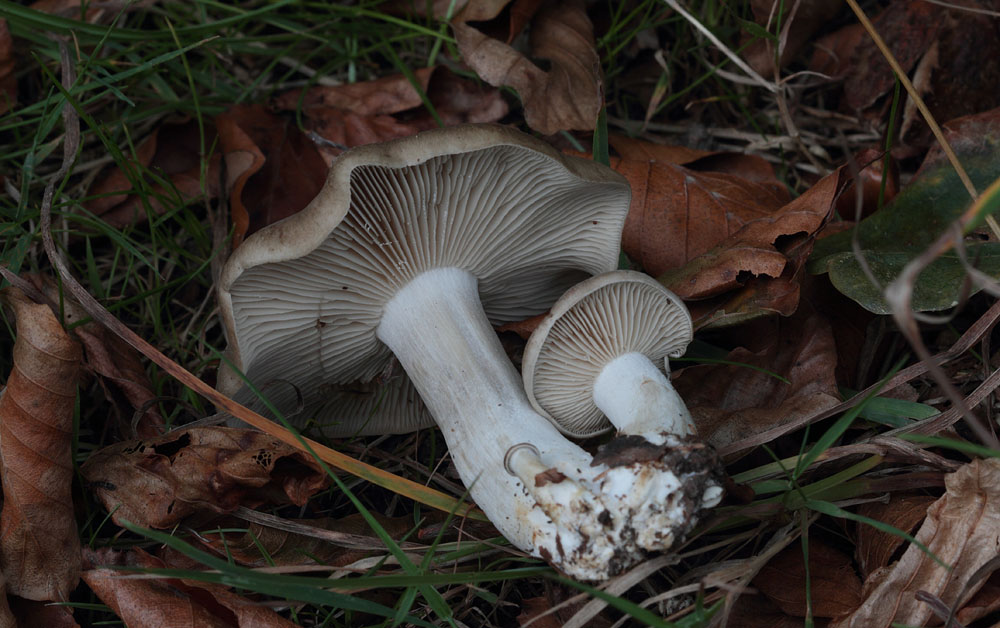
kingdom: Fungi
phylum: Basidiomycota
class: Agaricomycetes
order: Agaricales
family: Lyophyllaceae
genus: Lyophyllum
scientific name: Lyophyllum decastes
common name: Clustered domecap
